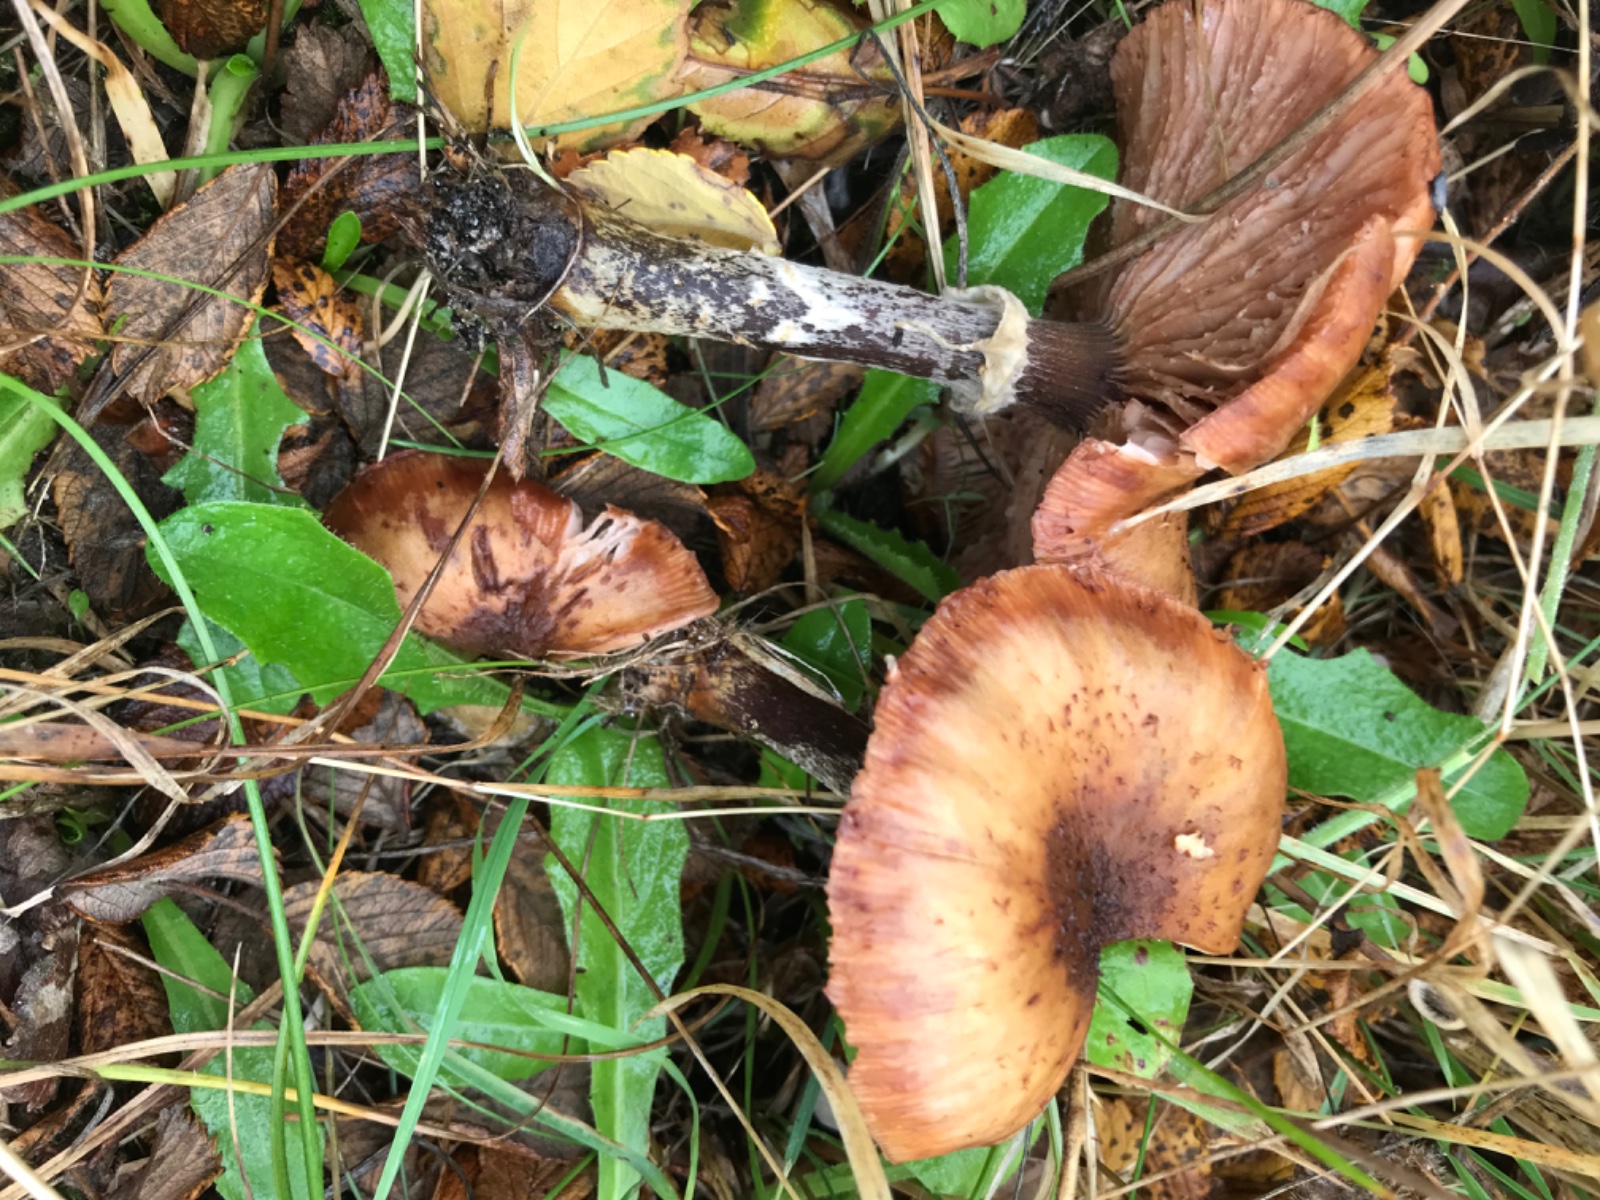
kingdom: Fungi
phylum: Basidiomycota
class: Agaricomycetes
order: Agaricales
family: Physalacriaceae
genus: Armillaria
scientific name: Armillaria lutea
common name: køllestokket honningsvamp
